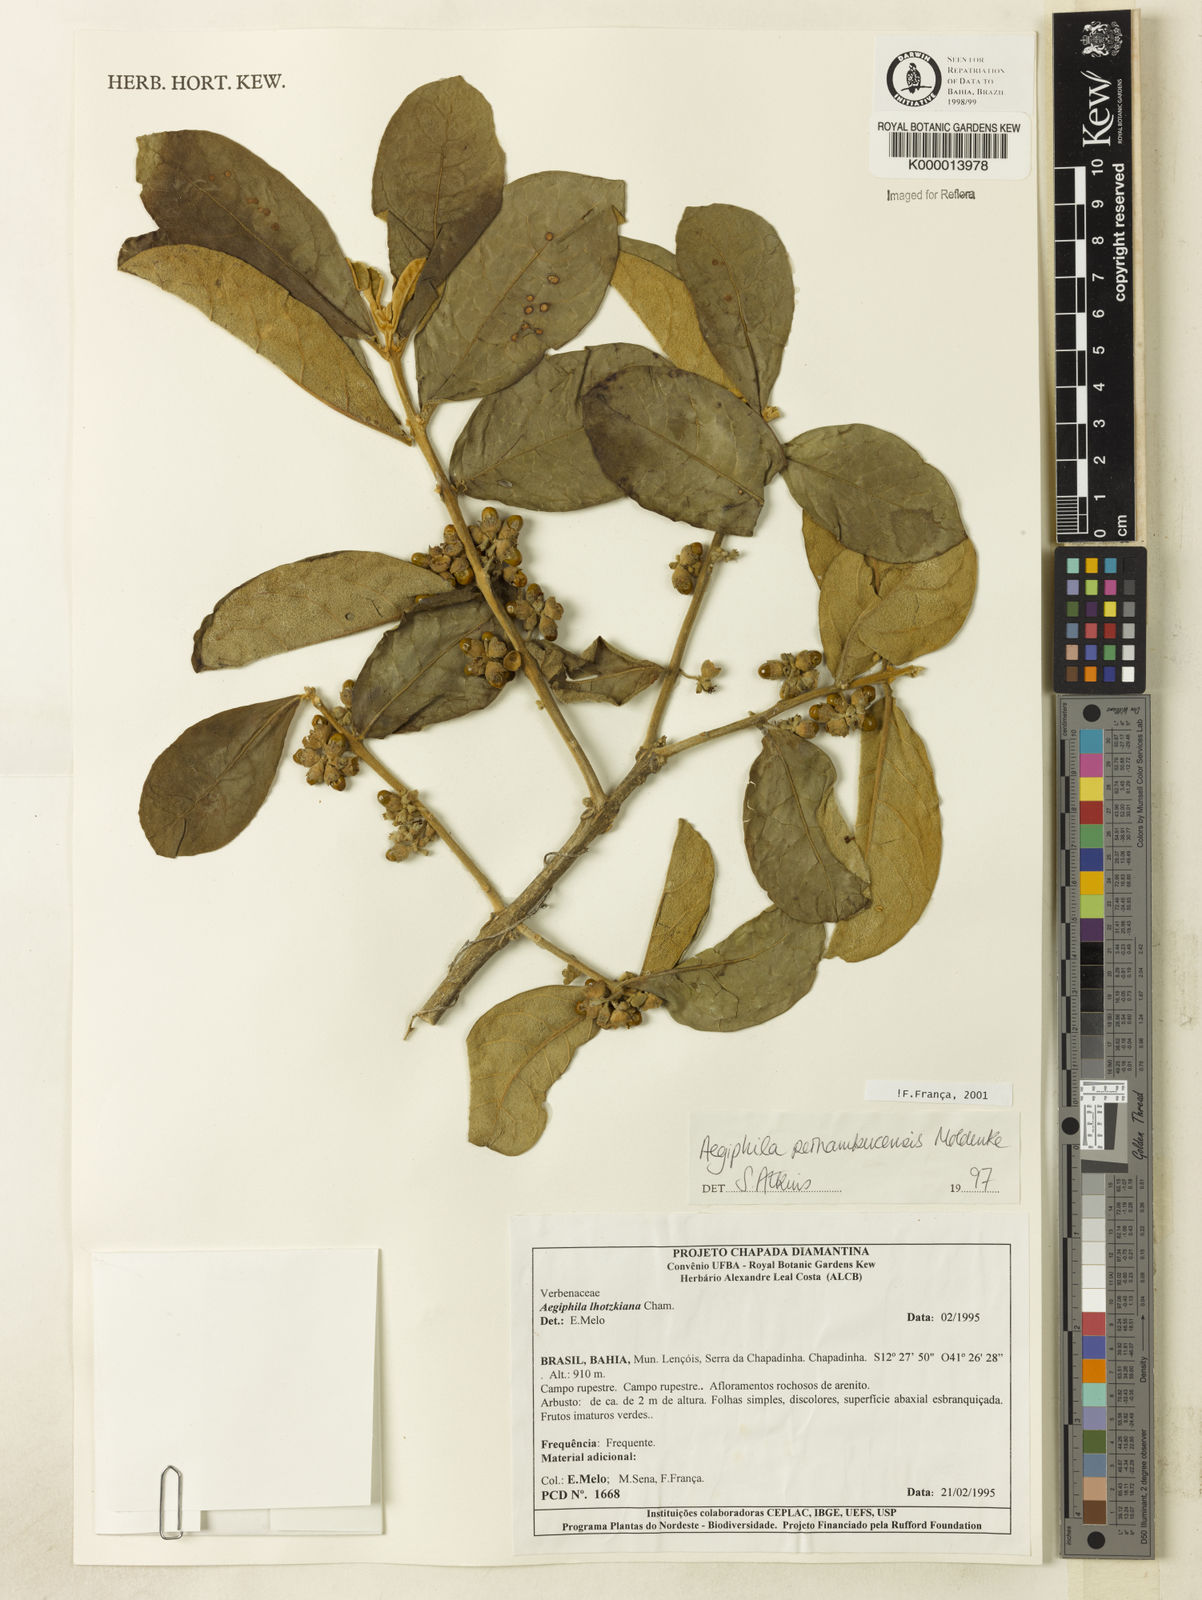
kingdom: Plantae
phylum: Tracheophyta
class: Magnoliopsida
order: Lamiales
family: Lamiaceae
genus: Aegiphila
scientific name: Aegiphila pernambucensis
